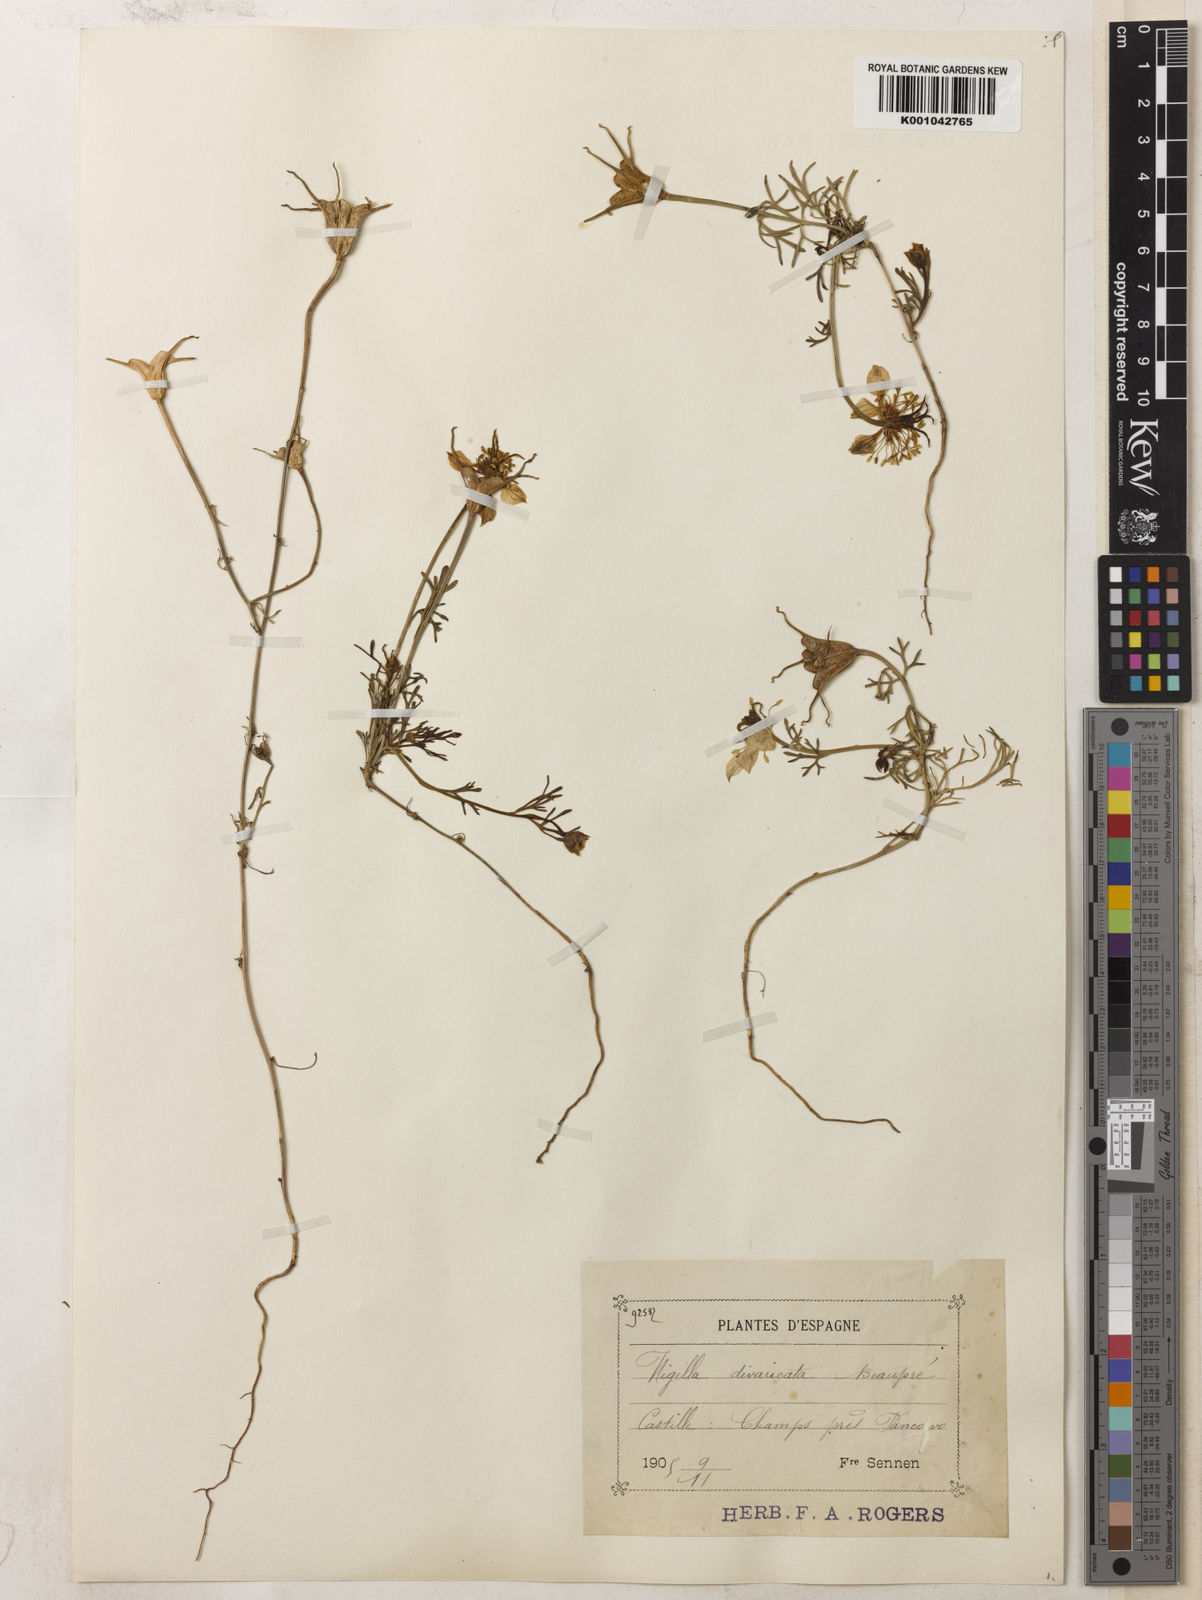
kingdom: Plantae
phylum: Tracheophyta
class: Magnoliopsida
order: Ranunculales
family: Ranunculaceae
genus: Nigella
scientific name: Nigella hispanica
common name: Fennel-flower
